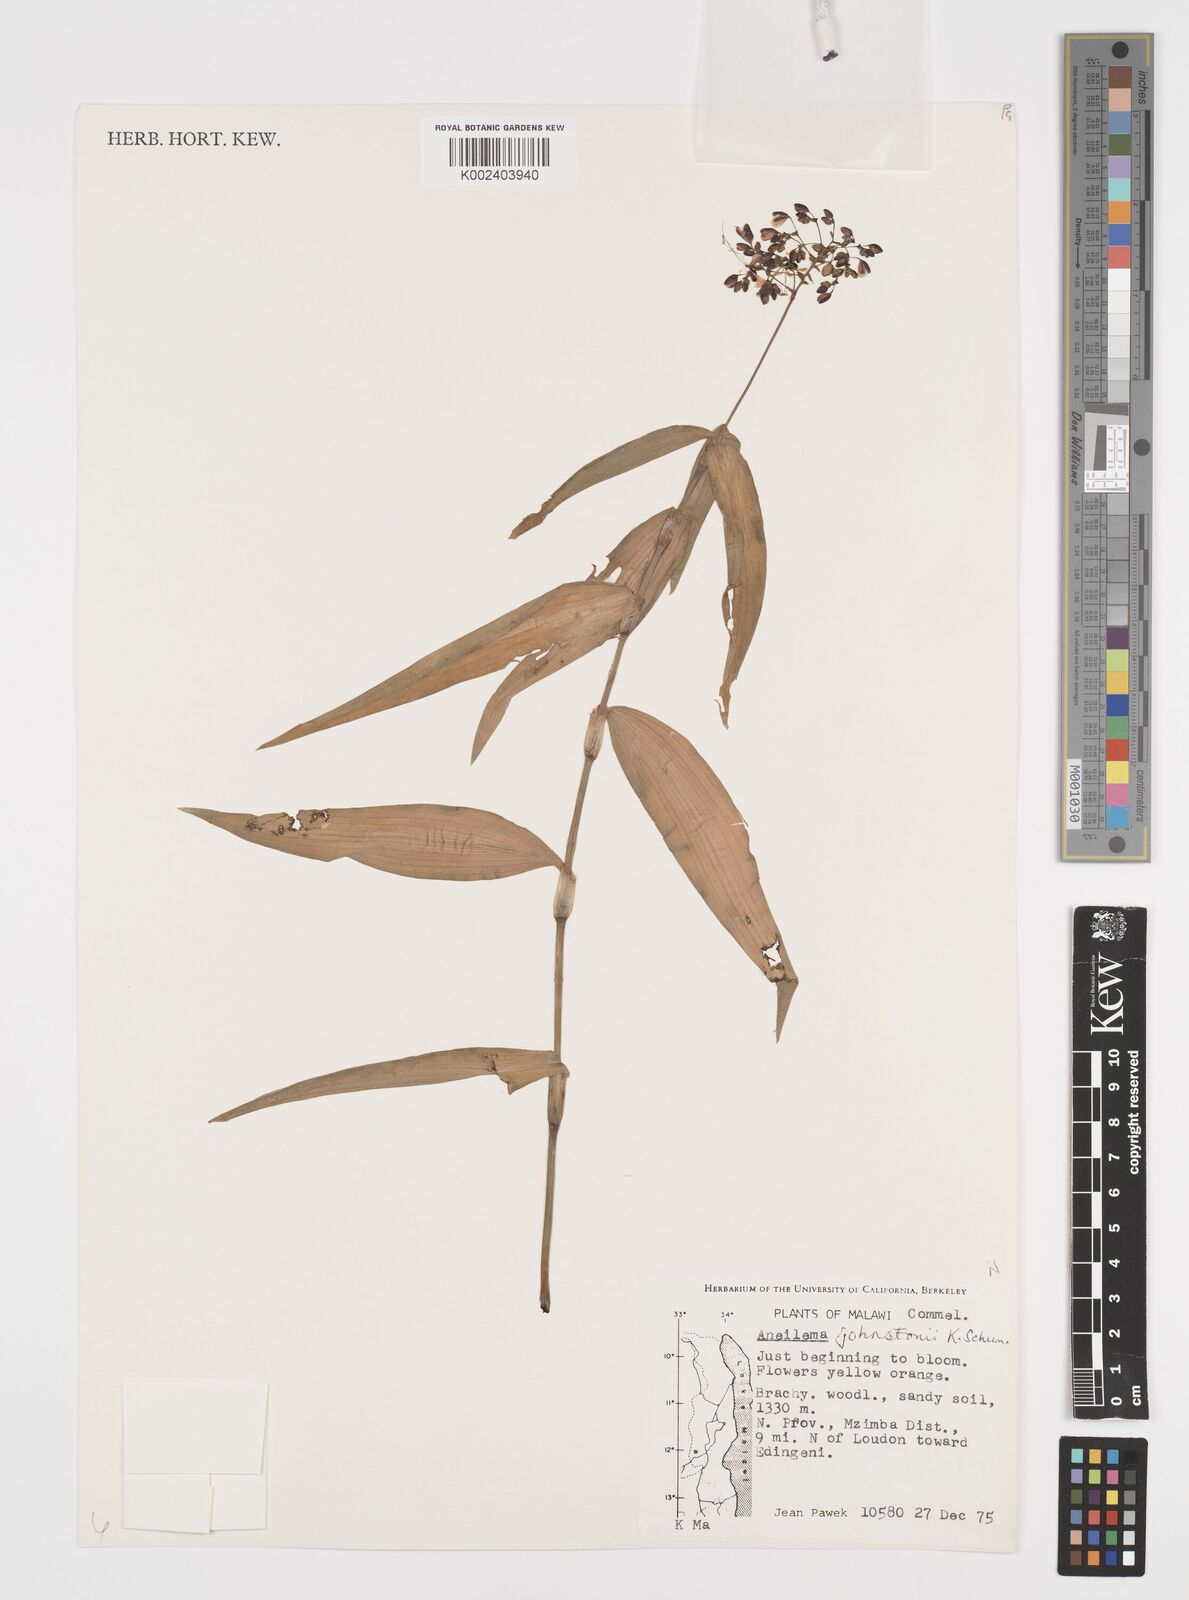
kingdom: Plantae
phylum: Tracheophyta
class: Liliopsida
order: Commelinales
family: Commelinaceae
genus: Aneilema
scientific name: Aneilema johnstonii
